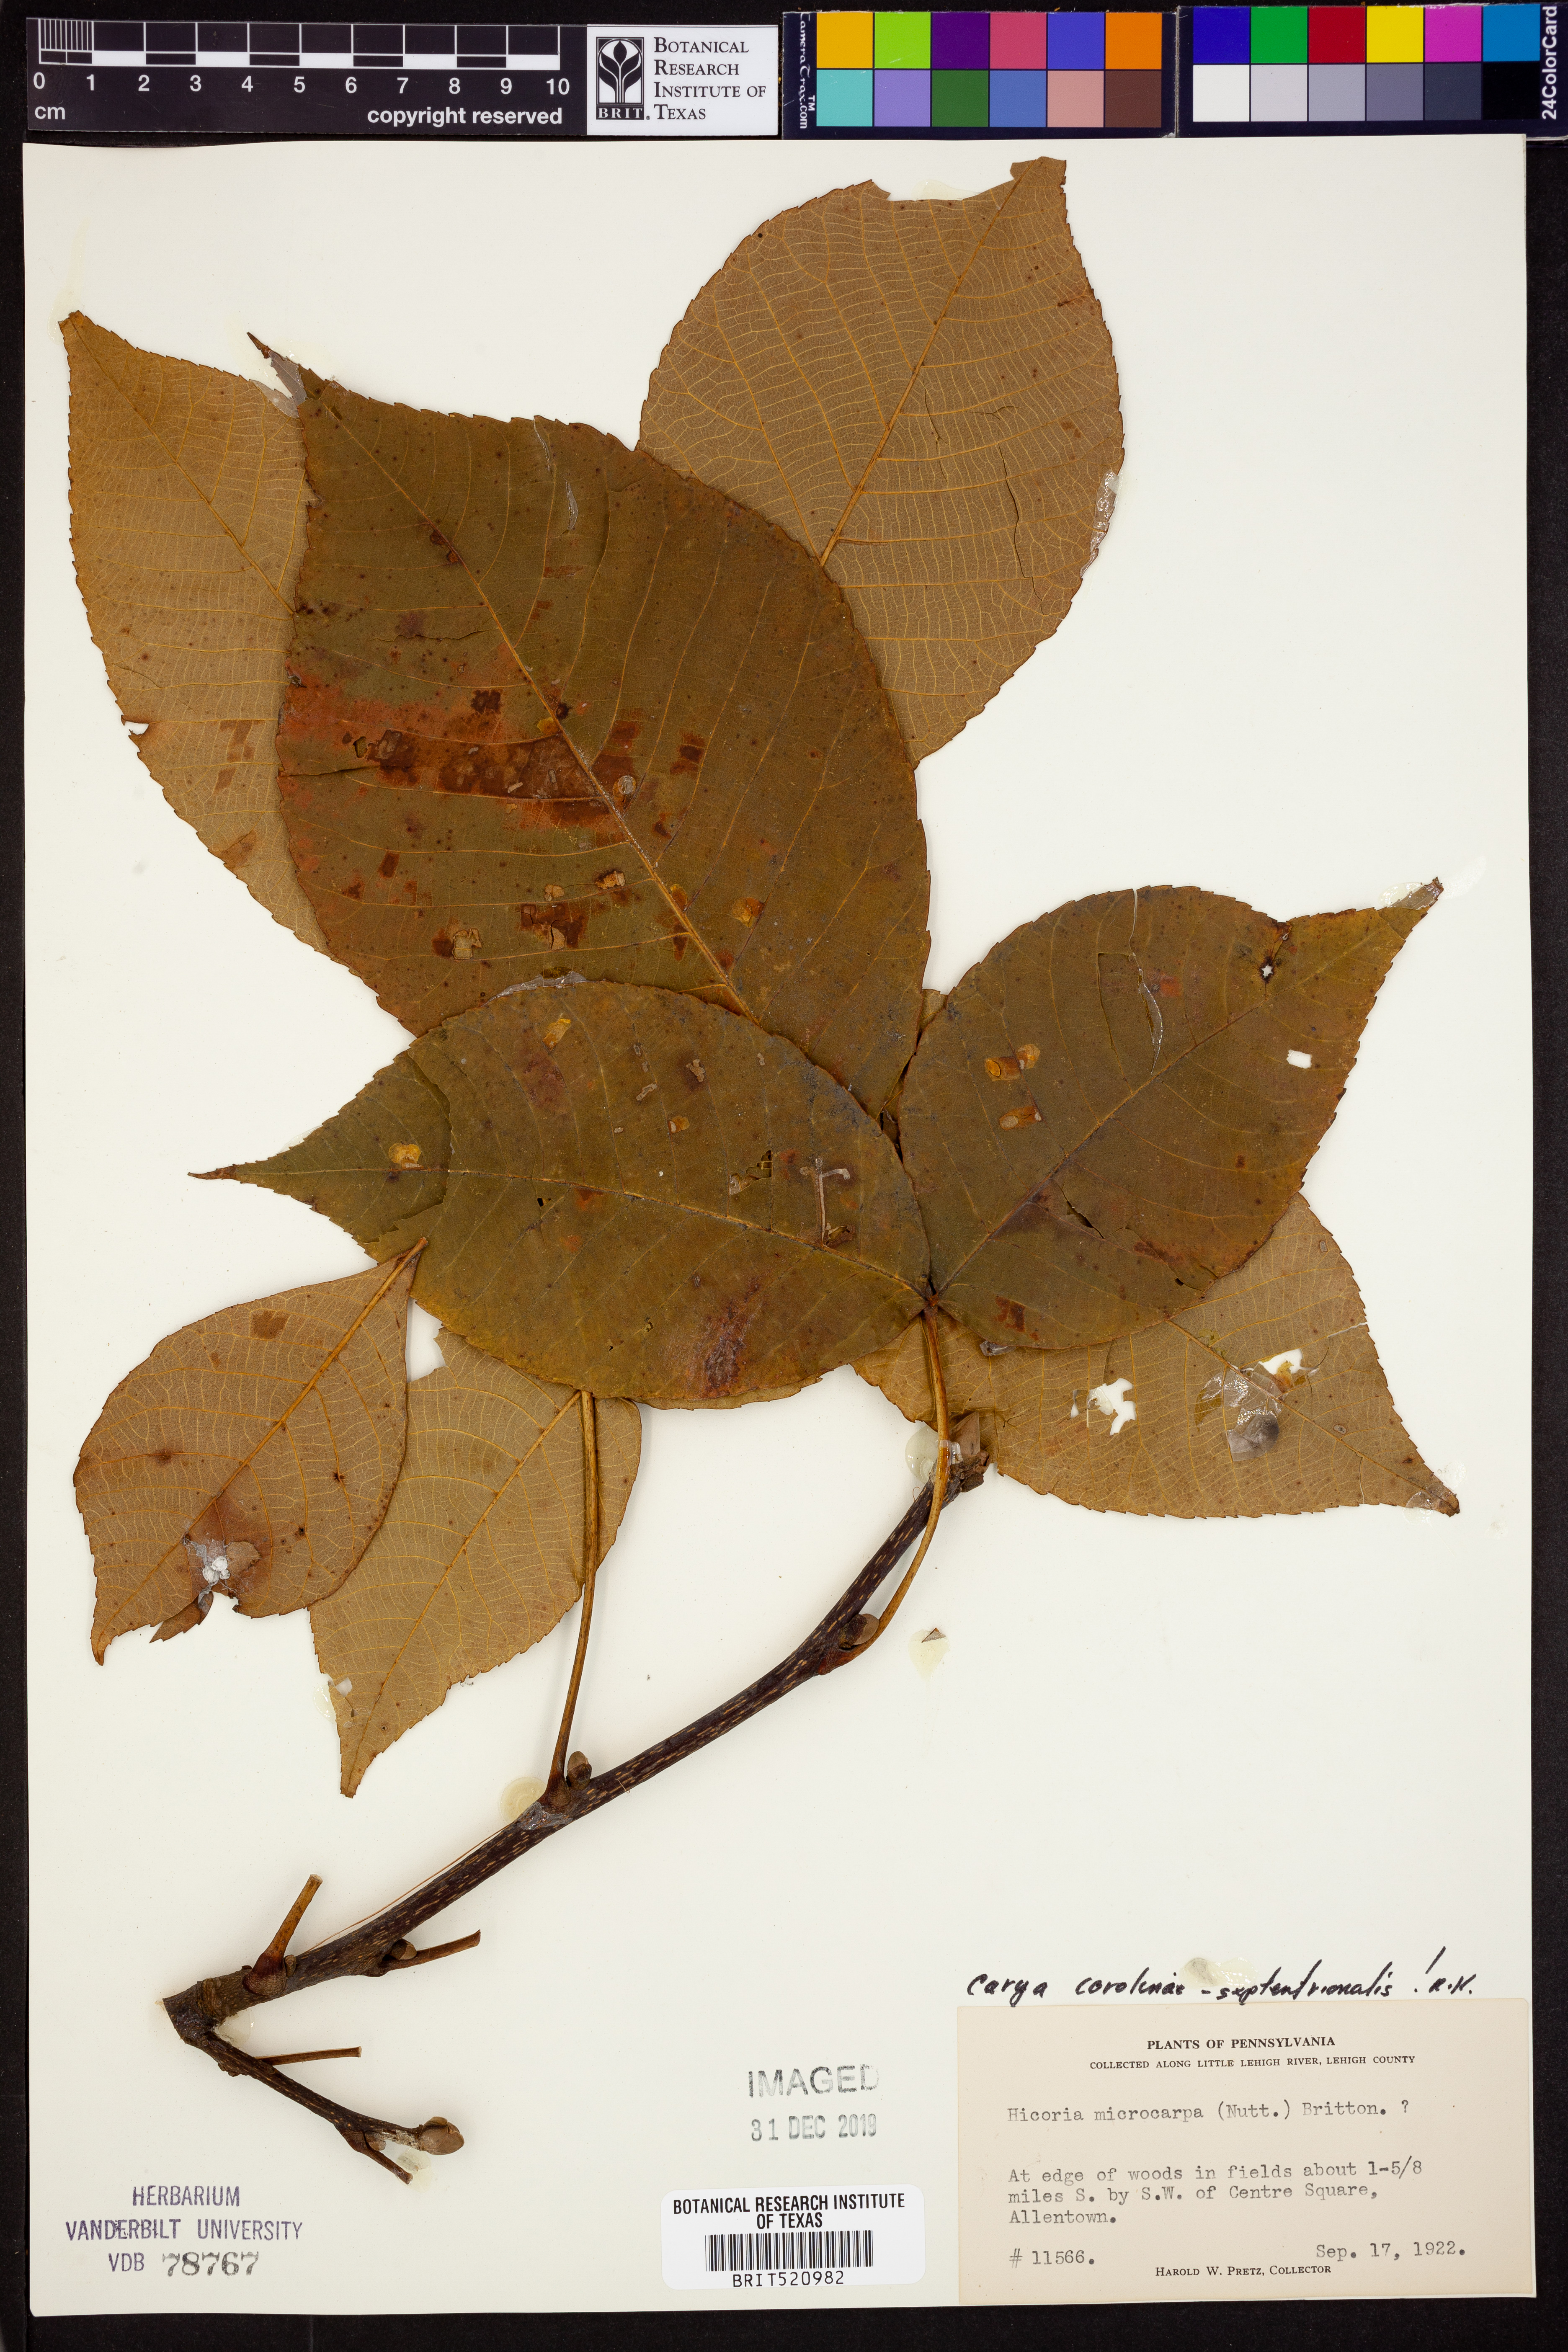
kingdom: Plantae
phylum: Tracheophyta
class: Magnoliopsida
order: Fagales
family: Juglandaceae
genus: Carya
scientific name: Carya carolinae-septentrionalis
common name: Carolina hickory
